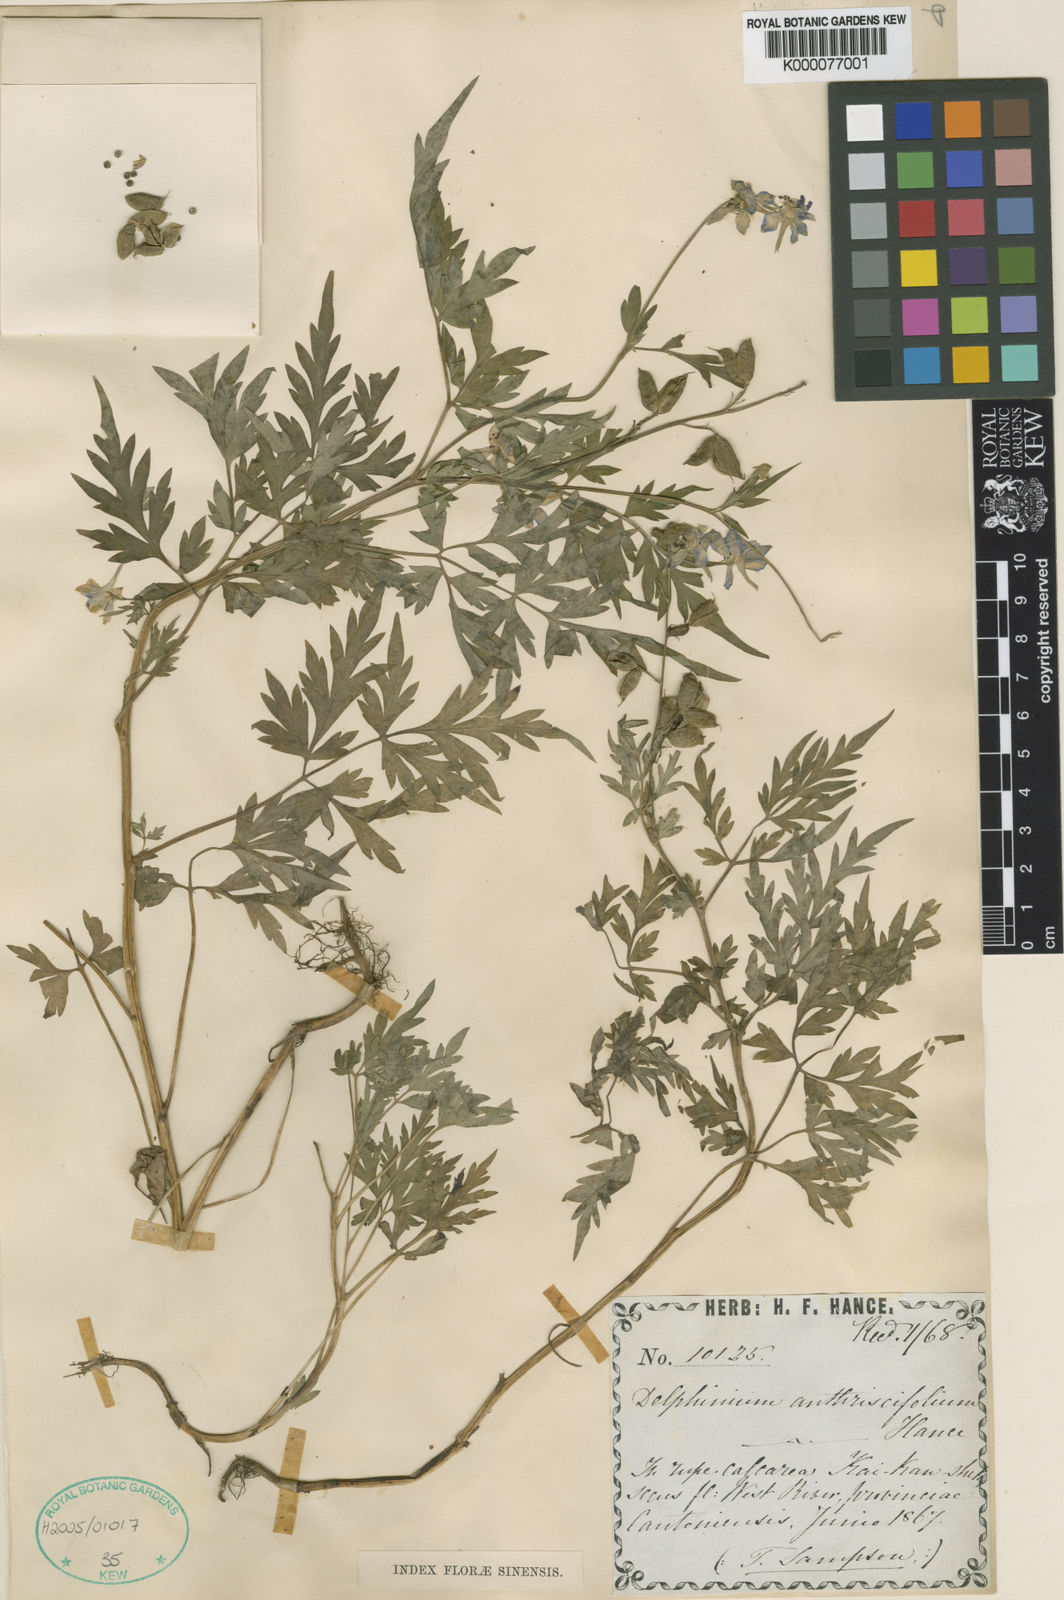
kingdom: Plantae
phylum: Tracheophyta
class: Magnoliopsida
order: Ranunculales
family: Ranunculaceae
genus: Delphinium
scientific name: Delphinium anthriscifolium
